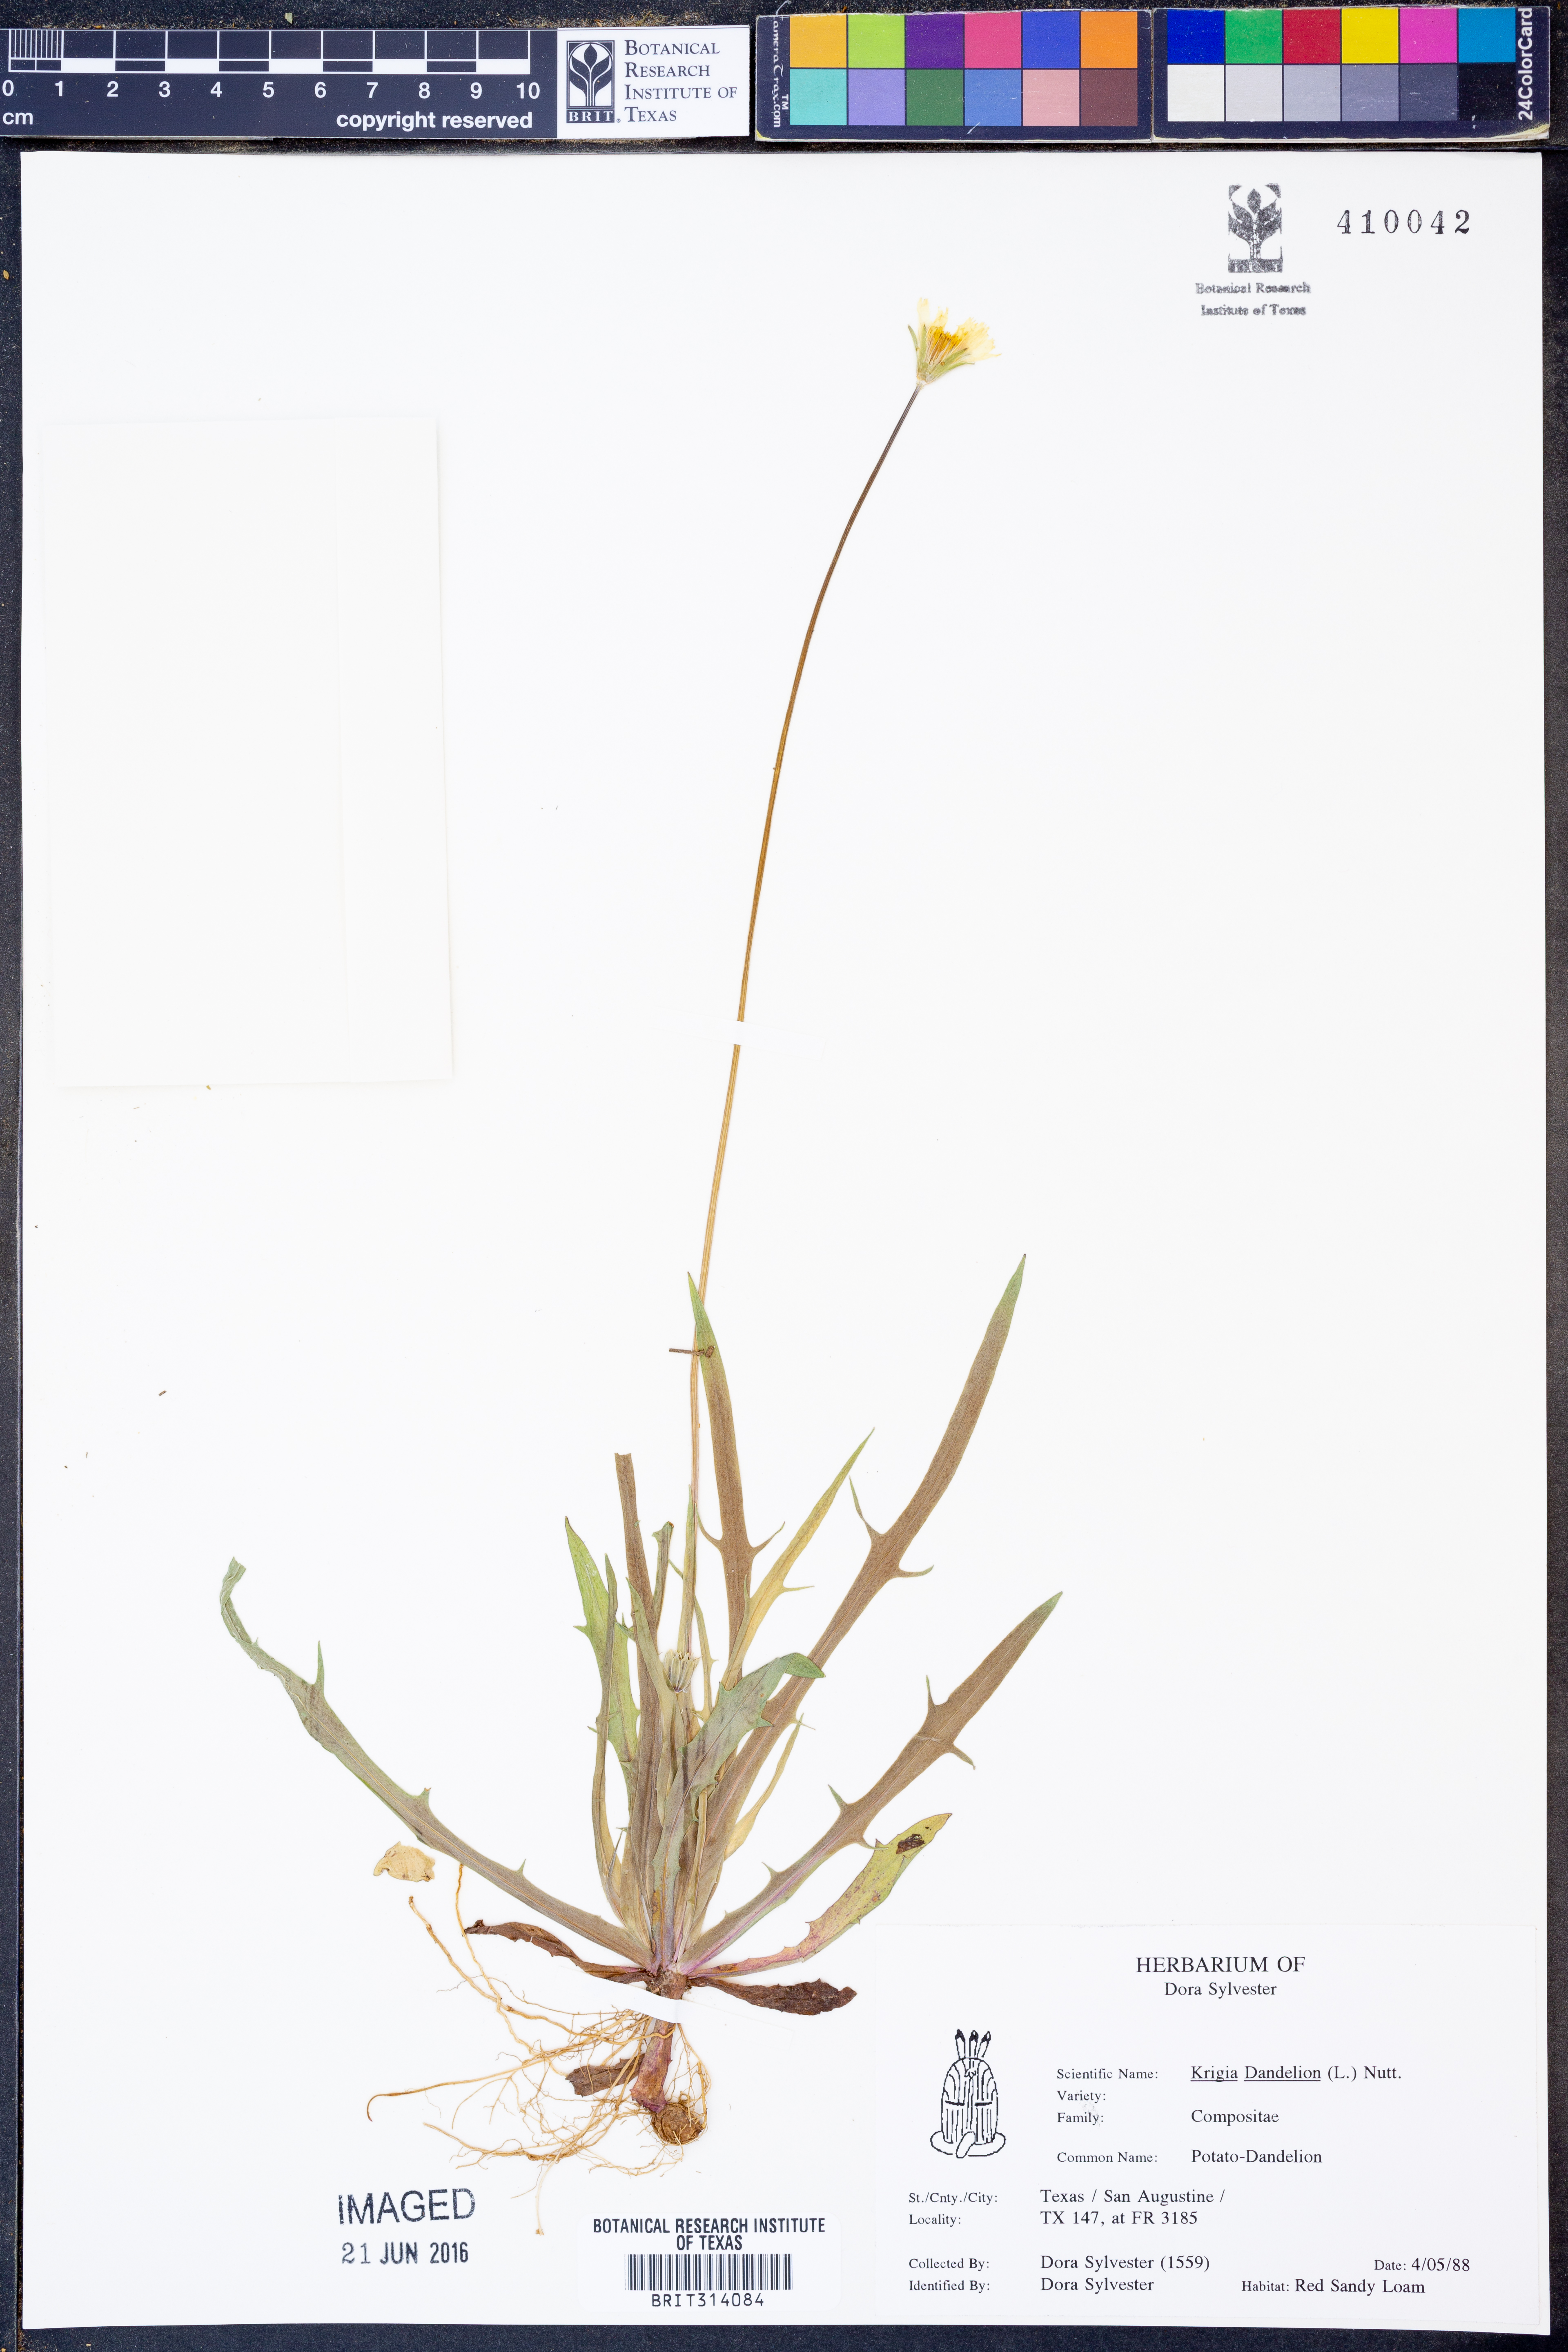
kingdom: Plantae
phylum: Tracheophyta
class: Magnoliopsida
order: Asterales
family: Asteraceae
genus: Krigia
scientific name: Krigia dandelion
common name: Colonial dwarf-dandelion
